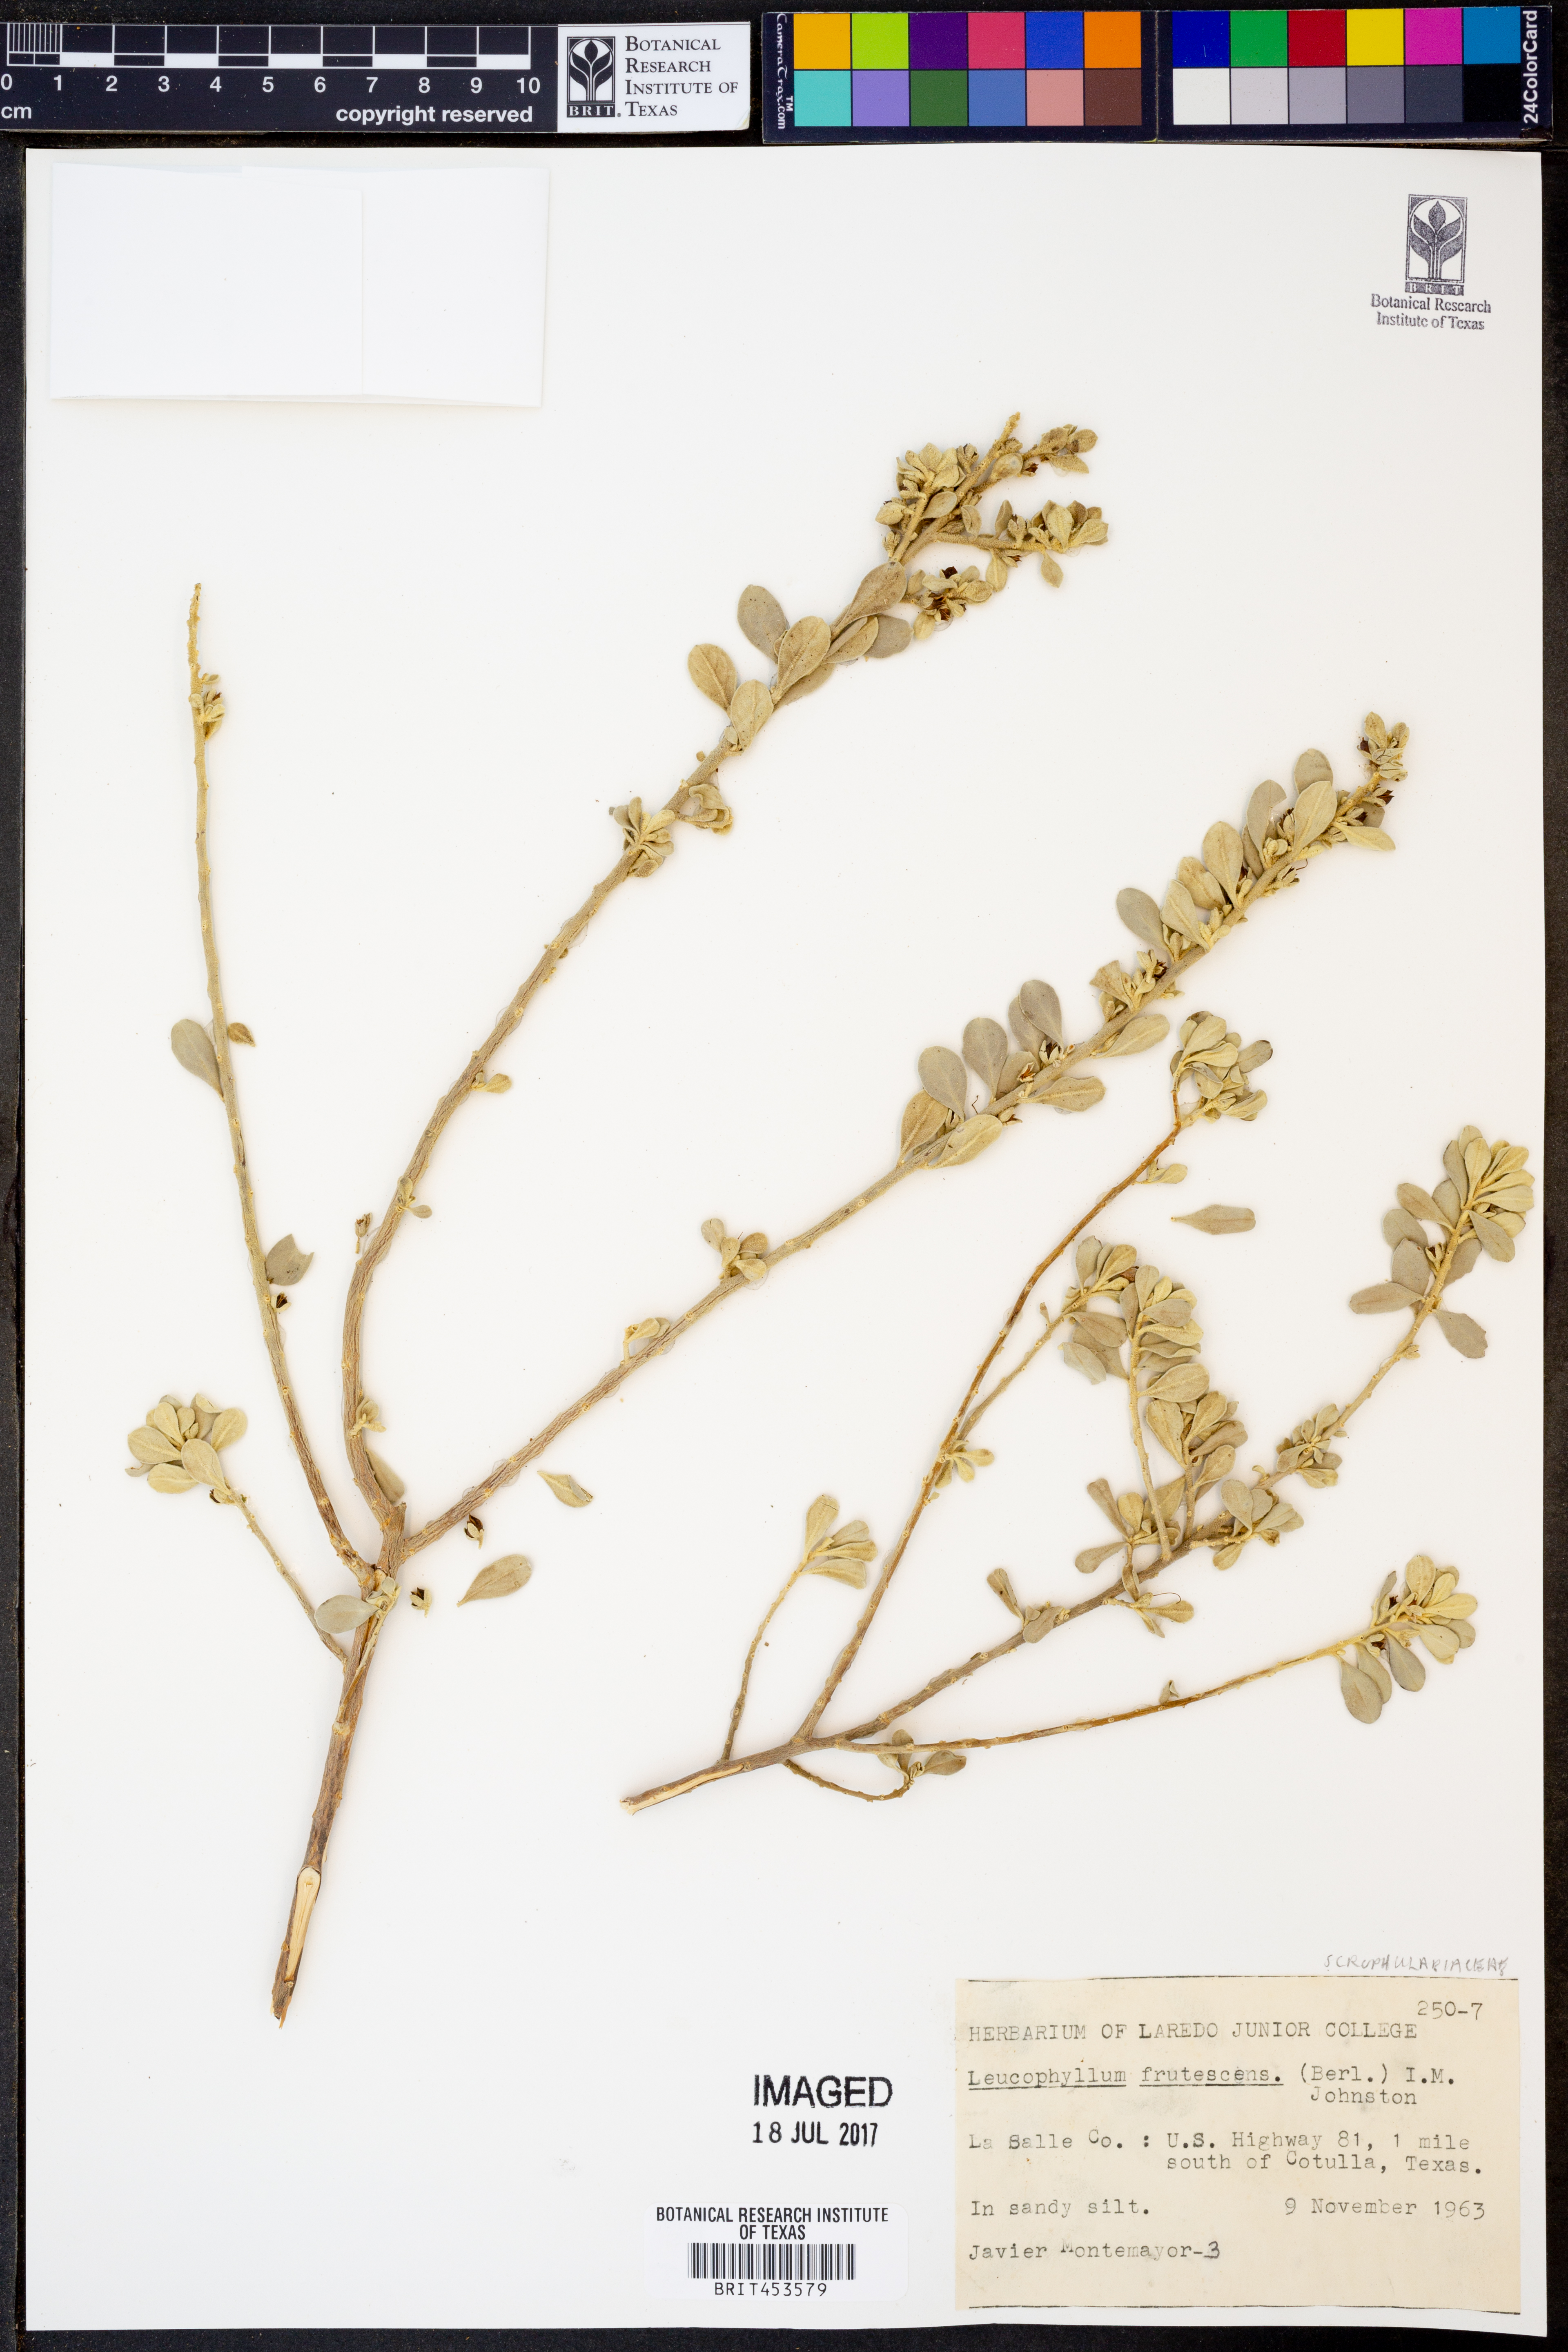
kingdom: Plantae
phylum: Tracheophyta
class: Magnoliopsida
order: Lamiales
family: Scrophulariaceae
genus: Leucophyllum
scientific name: Leucophyllum frutescens
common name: Texas silverleaf
